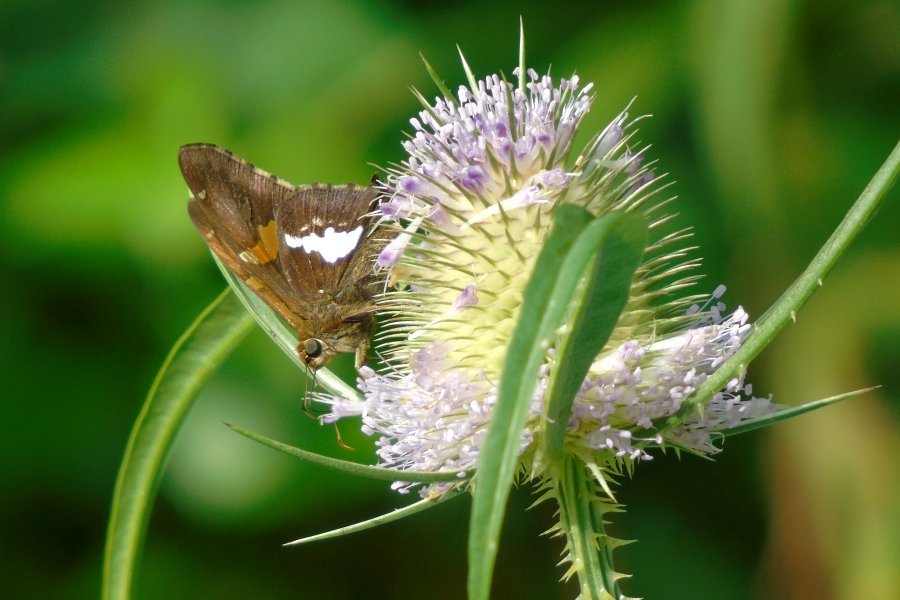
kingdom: Animalia
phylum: Arthropoda
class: Insecta
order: Lepidoptera
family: Hesperiidae
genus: Epargyreus
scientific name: Epargyreus clarus
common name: Silver-spotted Skipper
